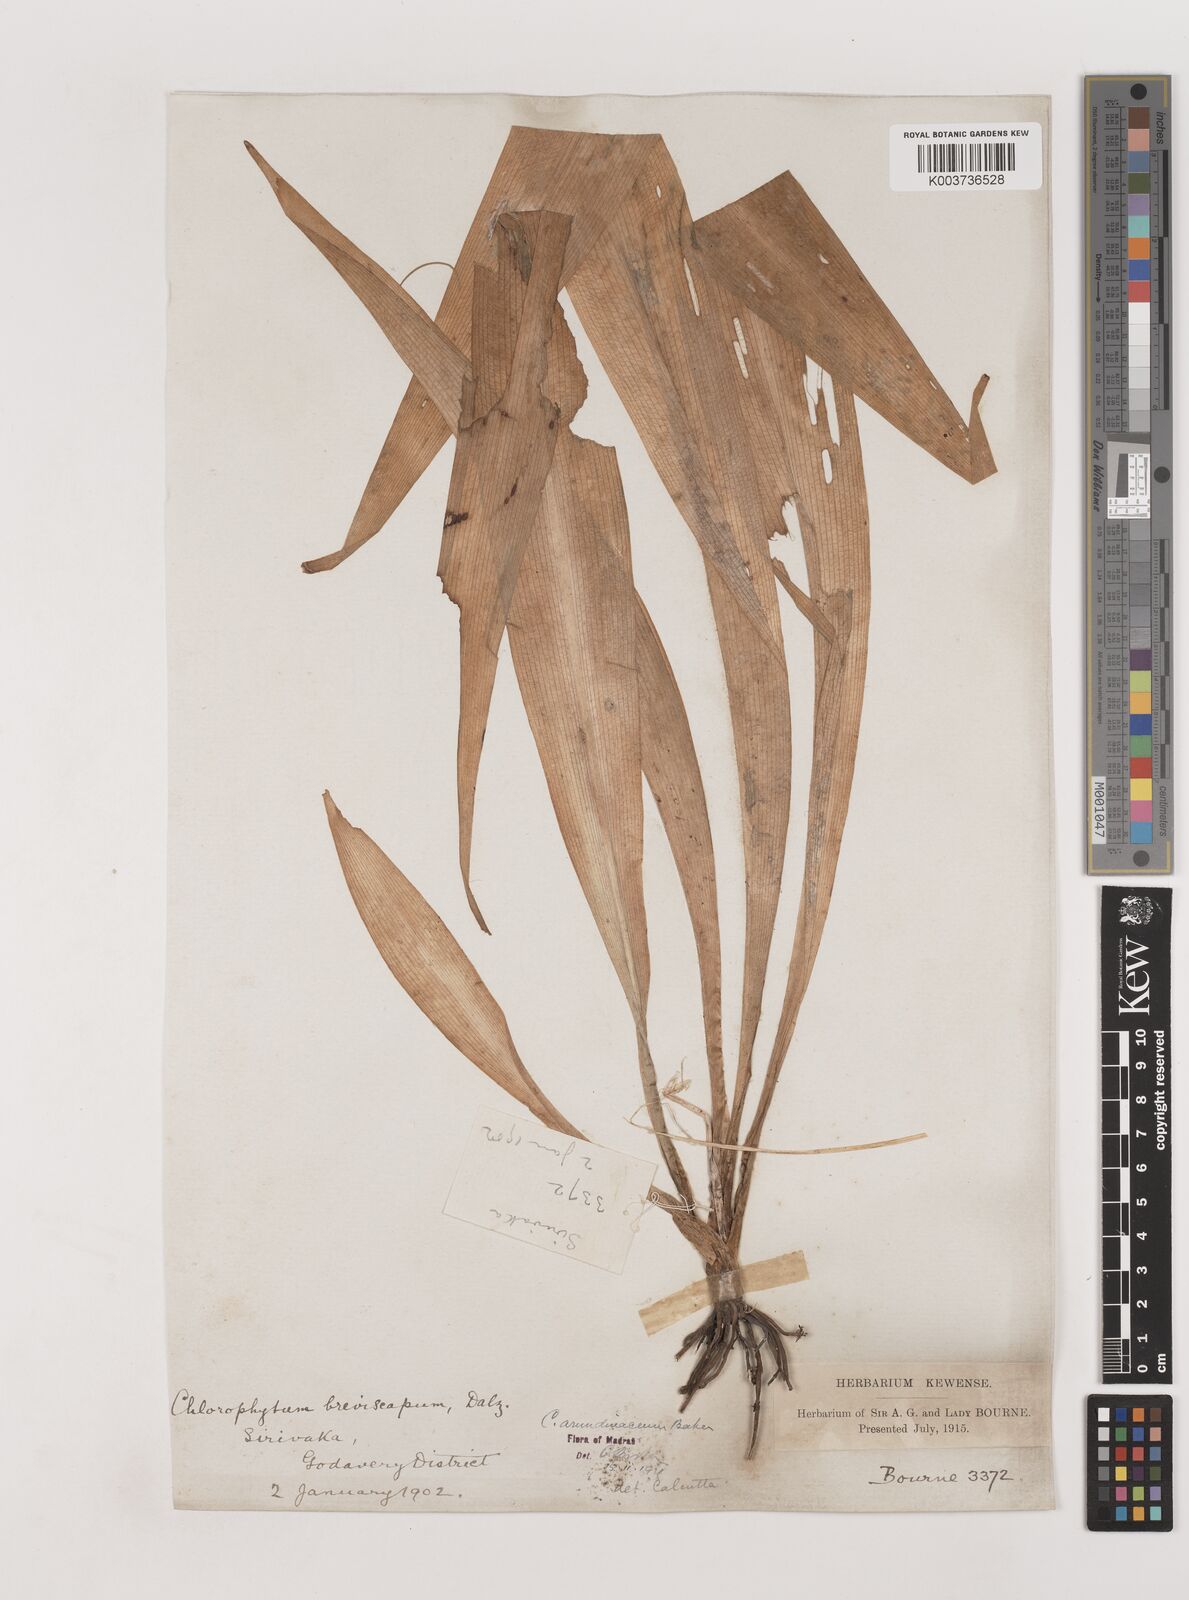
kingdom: Plantae
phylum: Tracheophyta
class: Liliopsida
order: Asparagales
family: Asparagaceae
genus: Chlorophytum
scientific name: Chlorophytum arundinaceum
